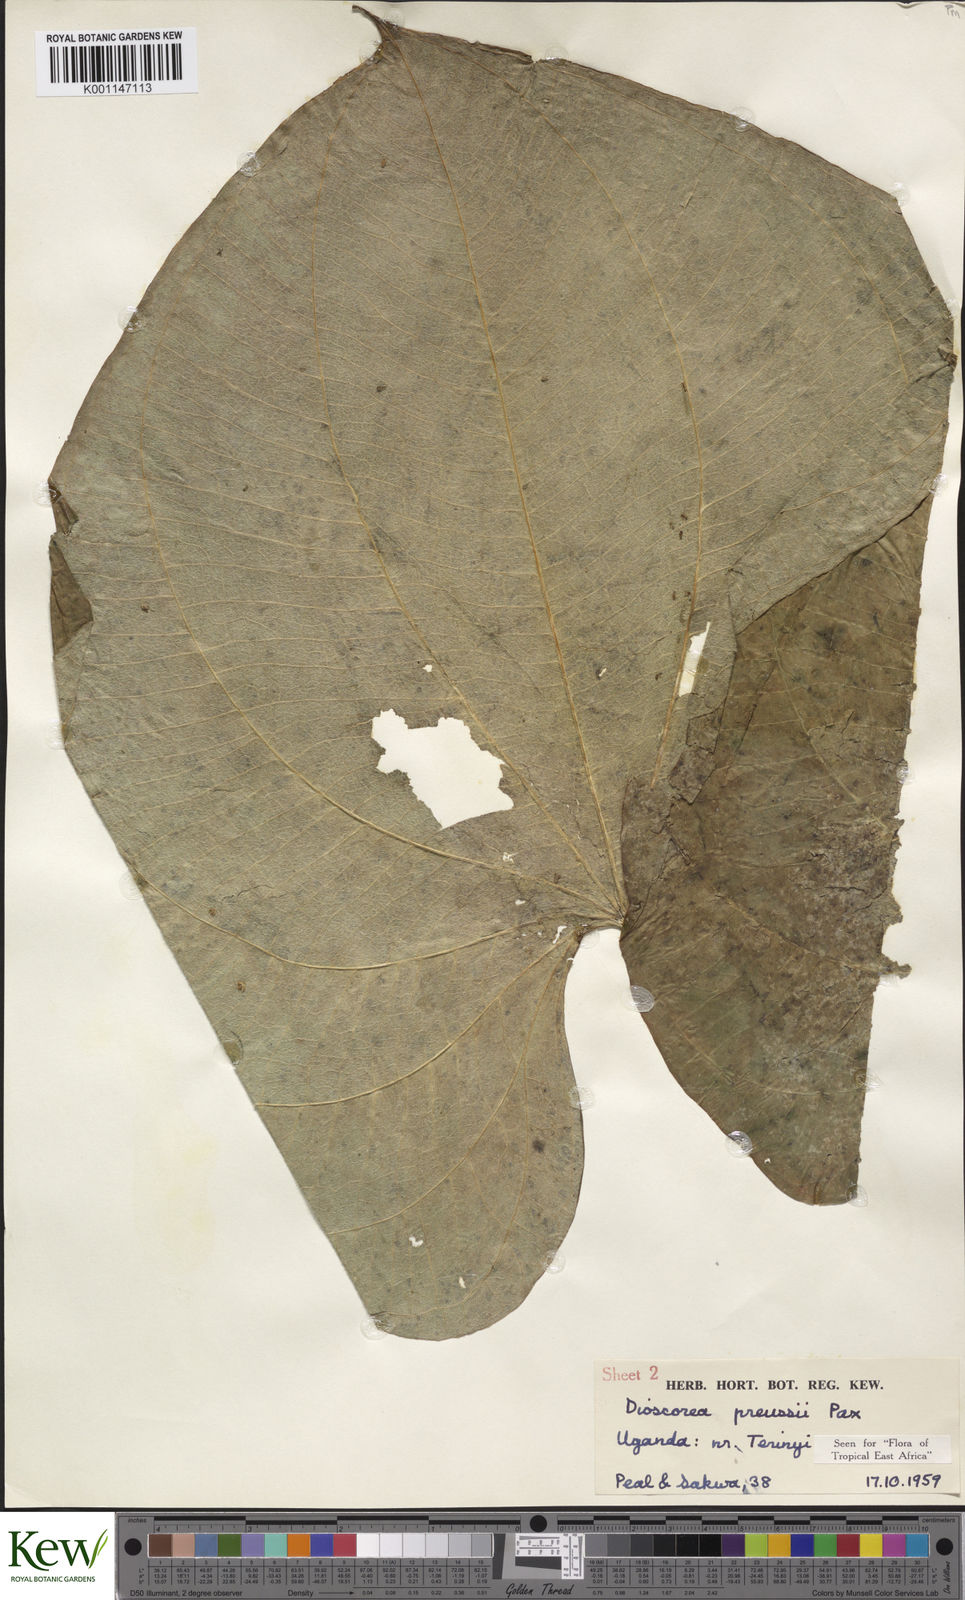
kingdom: Plantae
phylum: Tracheophyta
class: Liliopsida
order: Dioscoreales
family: Dioscoreaceae
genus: Dioscorea
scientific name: Dioscorea preussii
